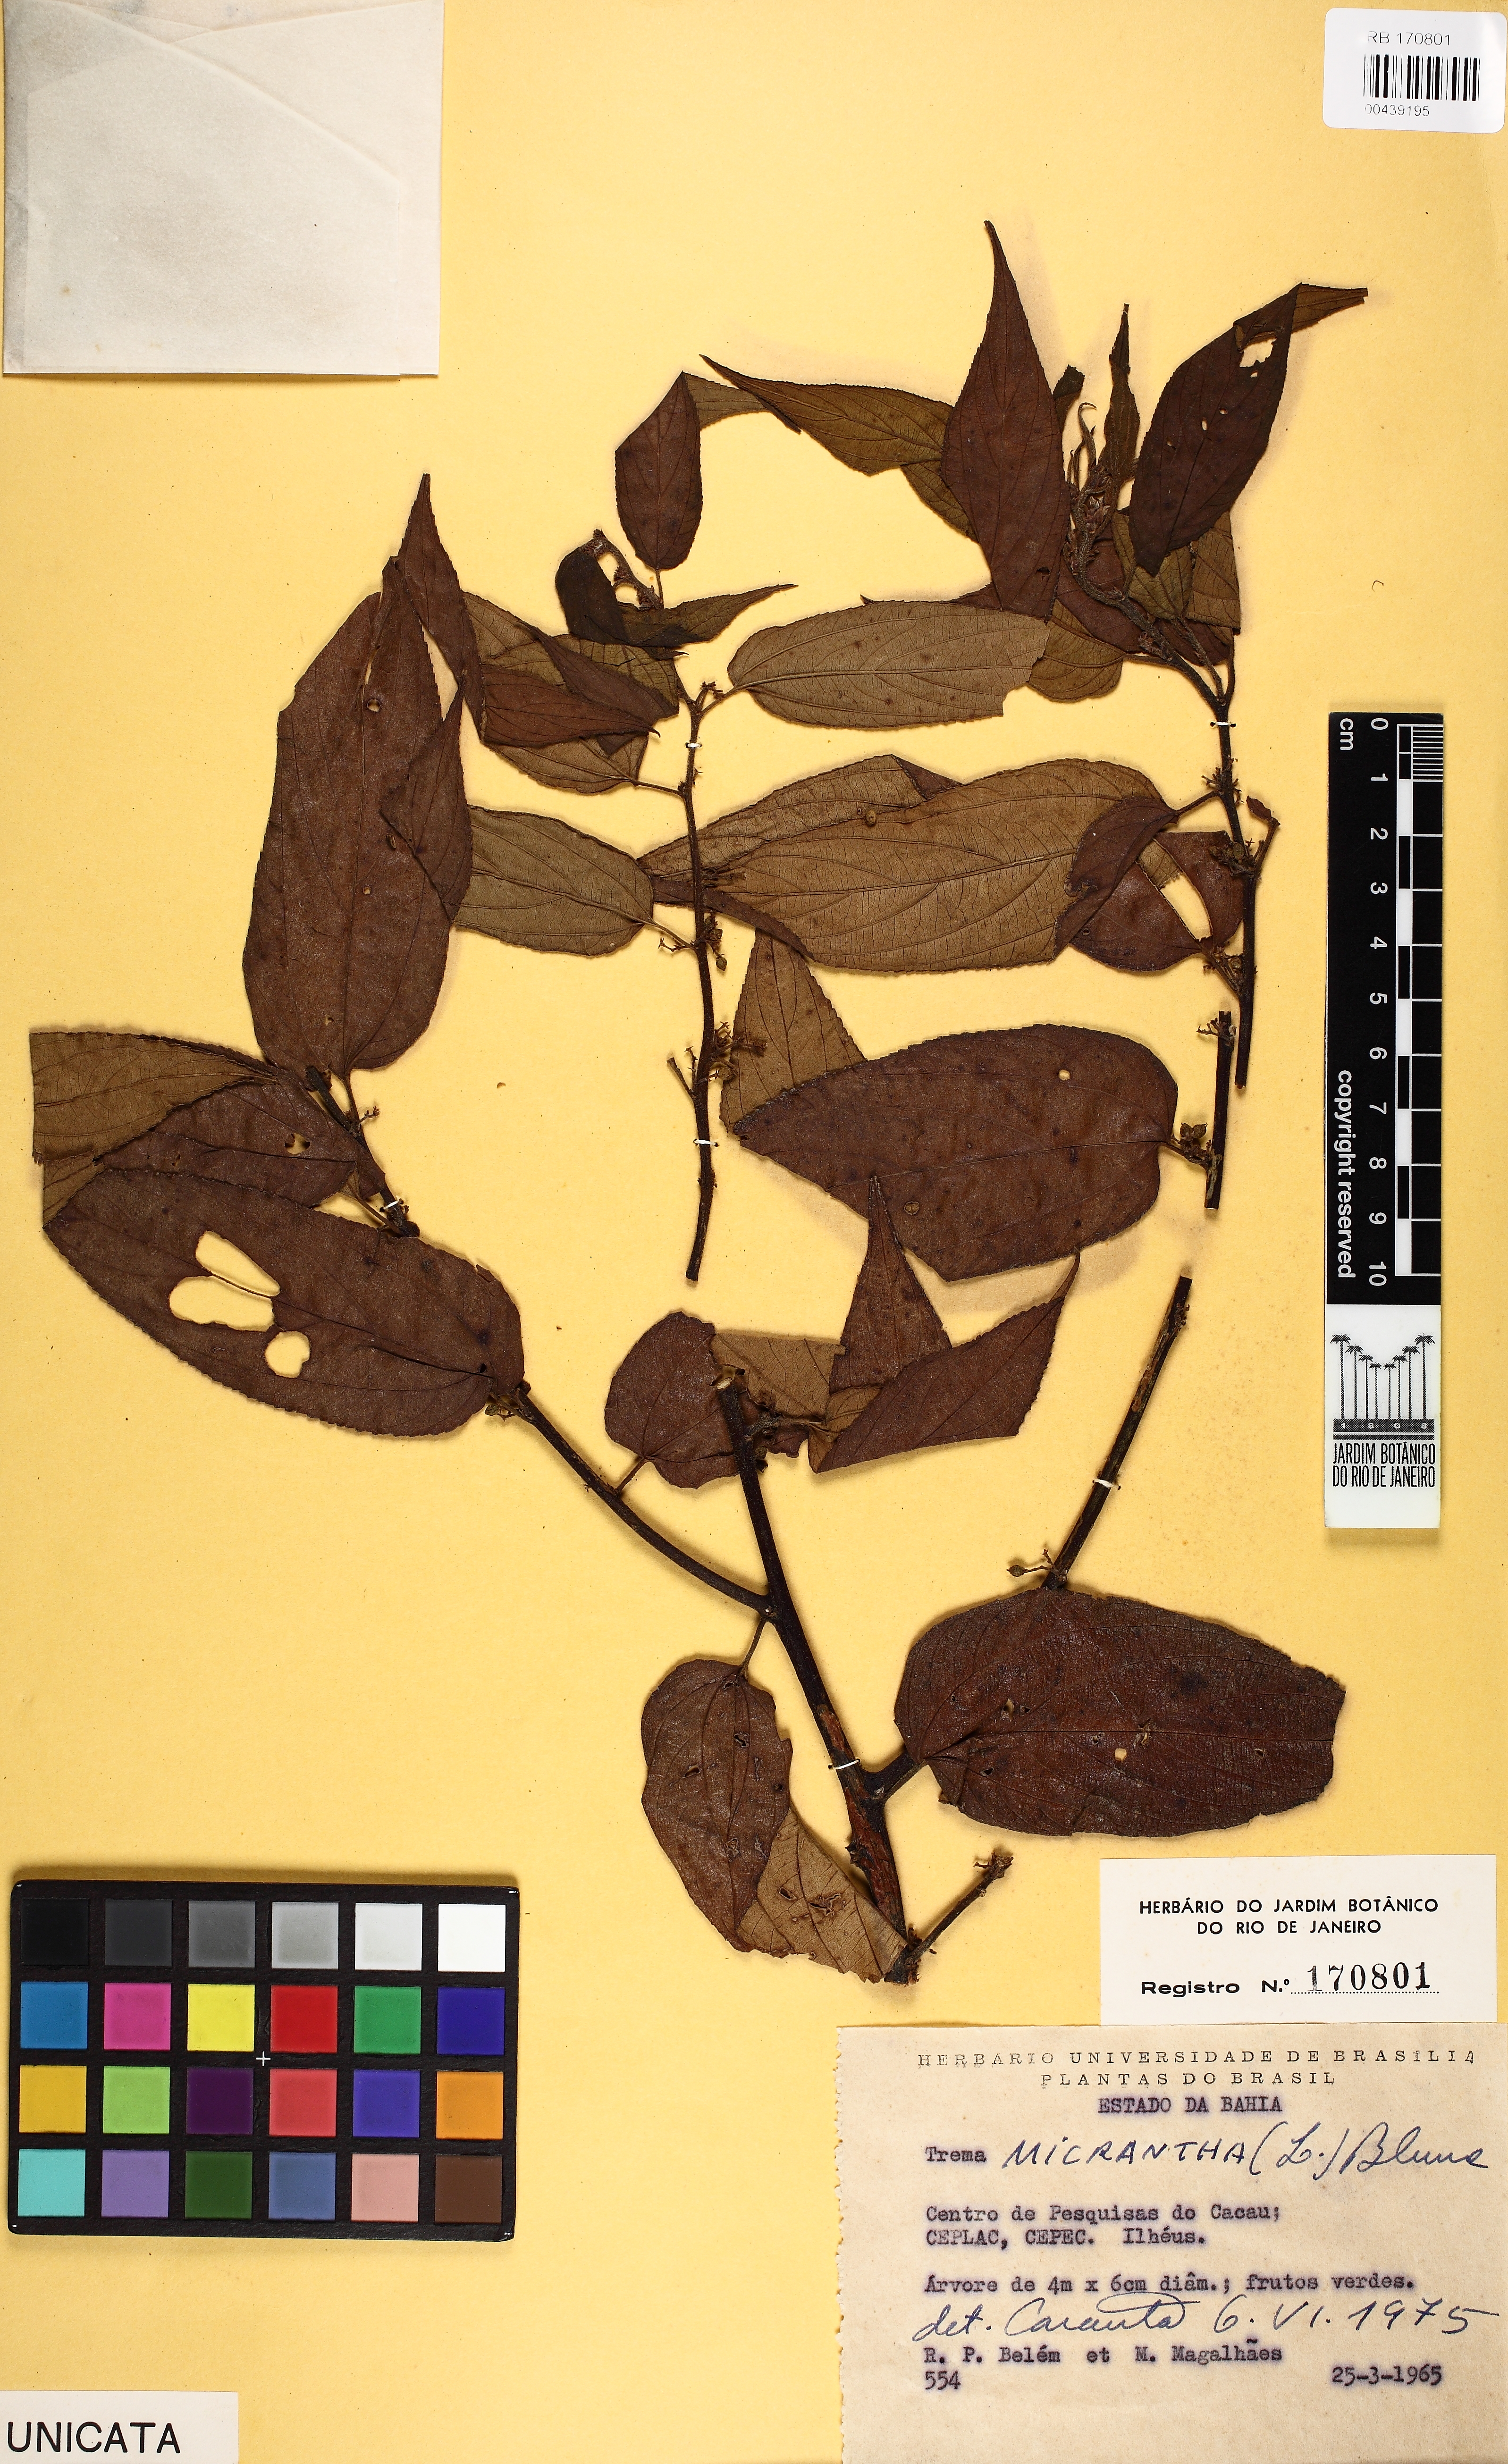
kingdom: Plantae
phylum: Tracheophyta
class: Magnoliopsida
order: Rosales
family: Cannabaceae
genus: Trema
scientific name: Trema micranthum
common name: Jamaican nettletree
